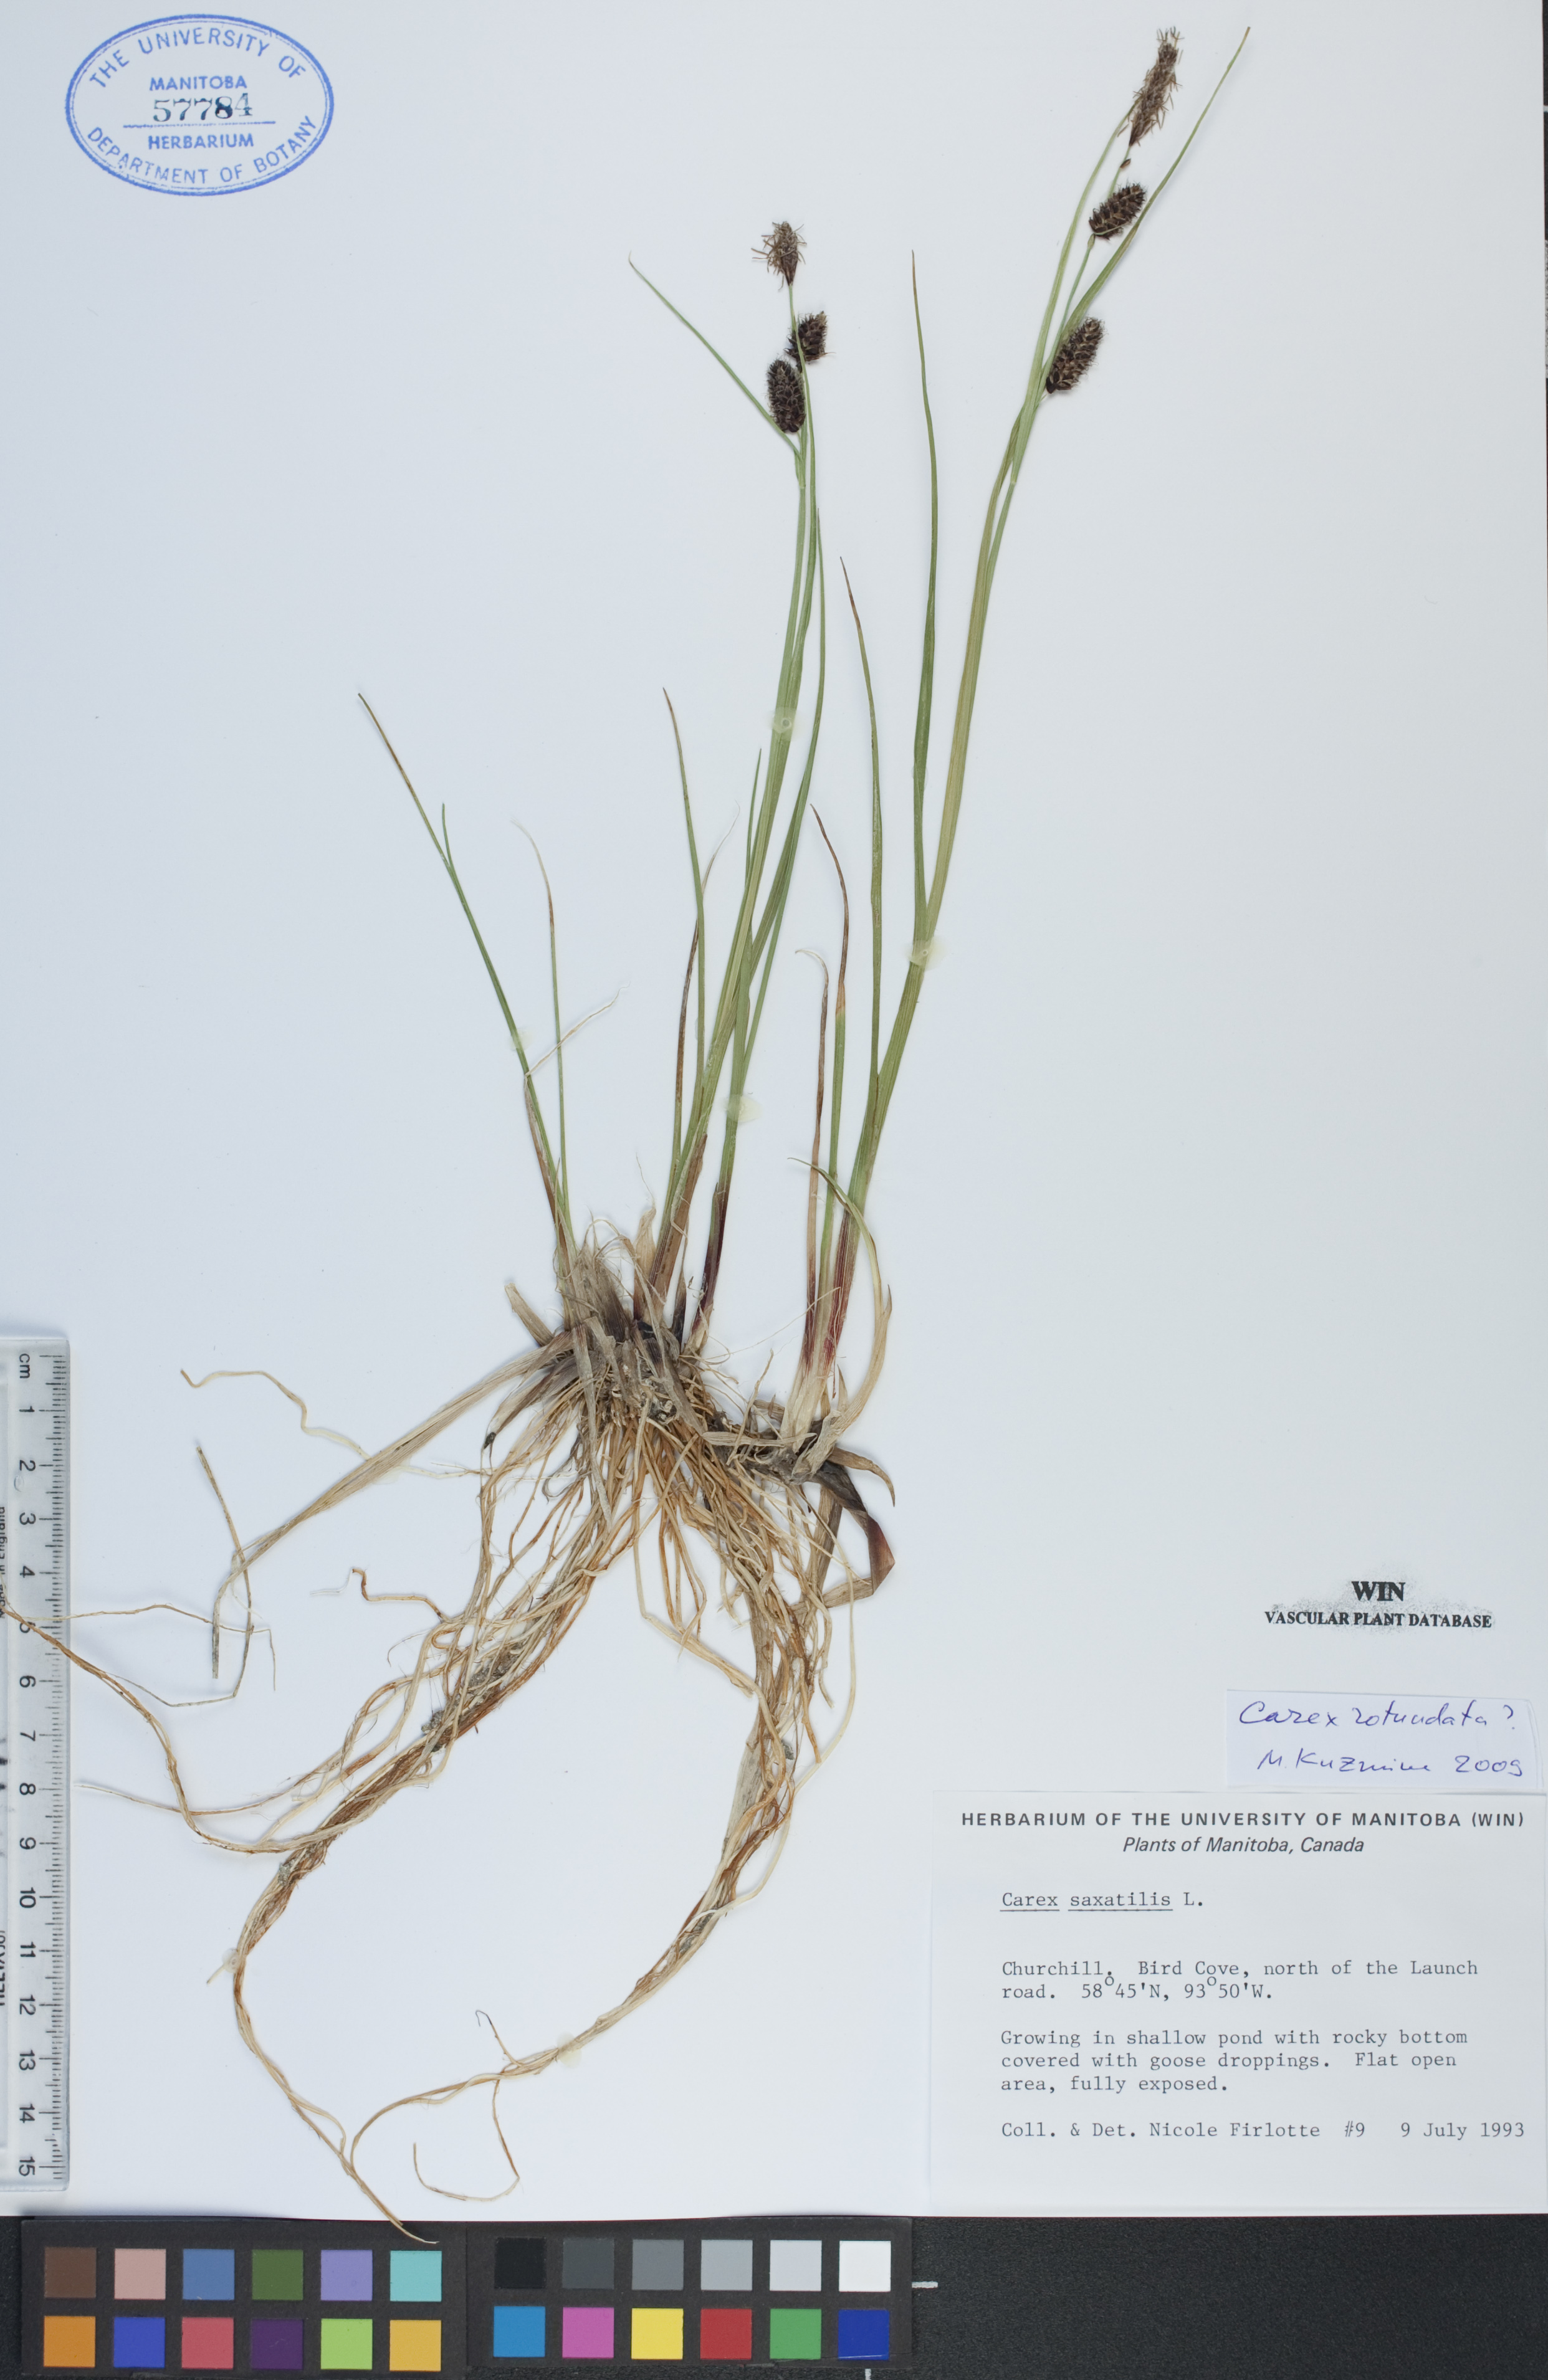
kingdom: Plantae
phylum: Tracheophyta
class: Liliopsida
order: Poales
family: Cyperaceae
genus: Carex
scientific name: Carex saxatilis
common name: Russet sedge
